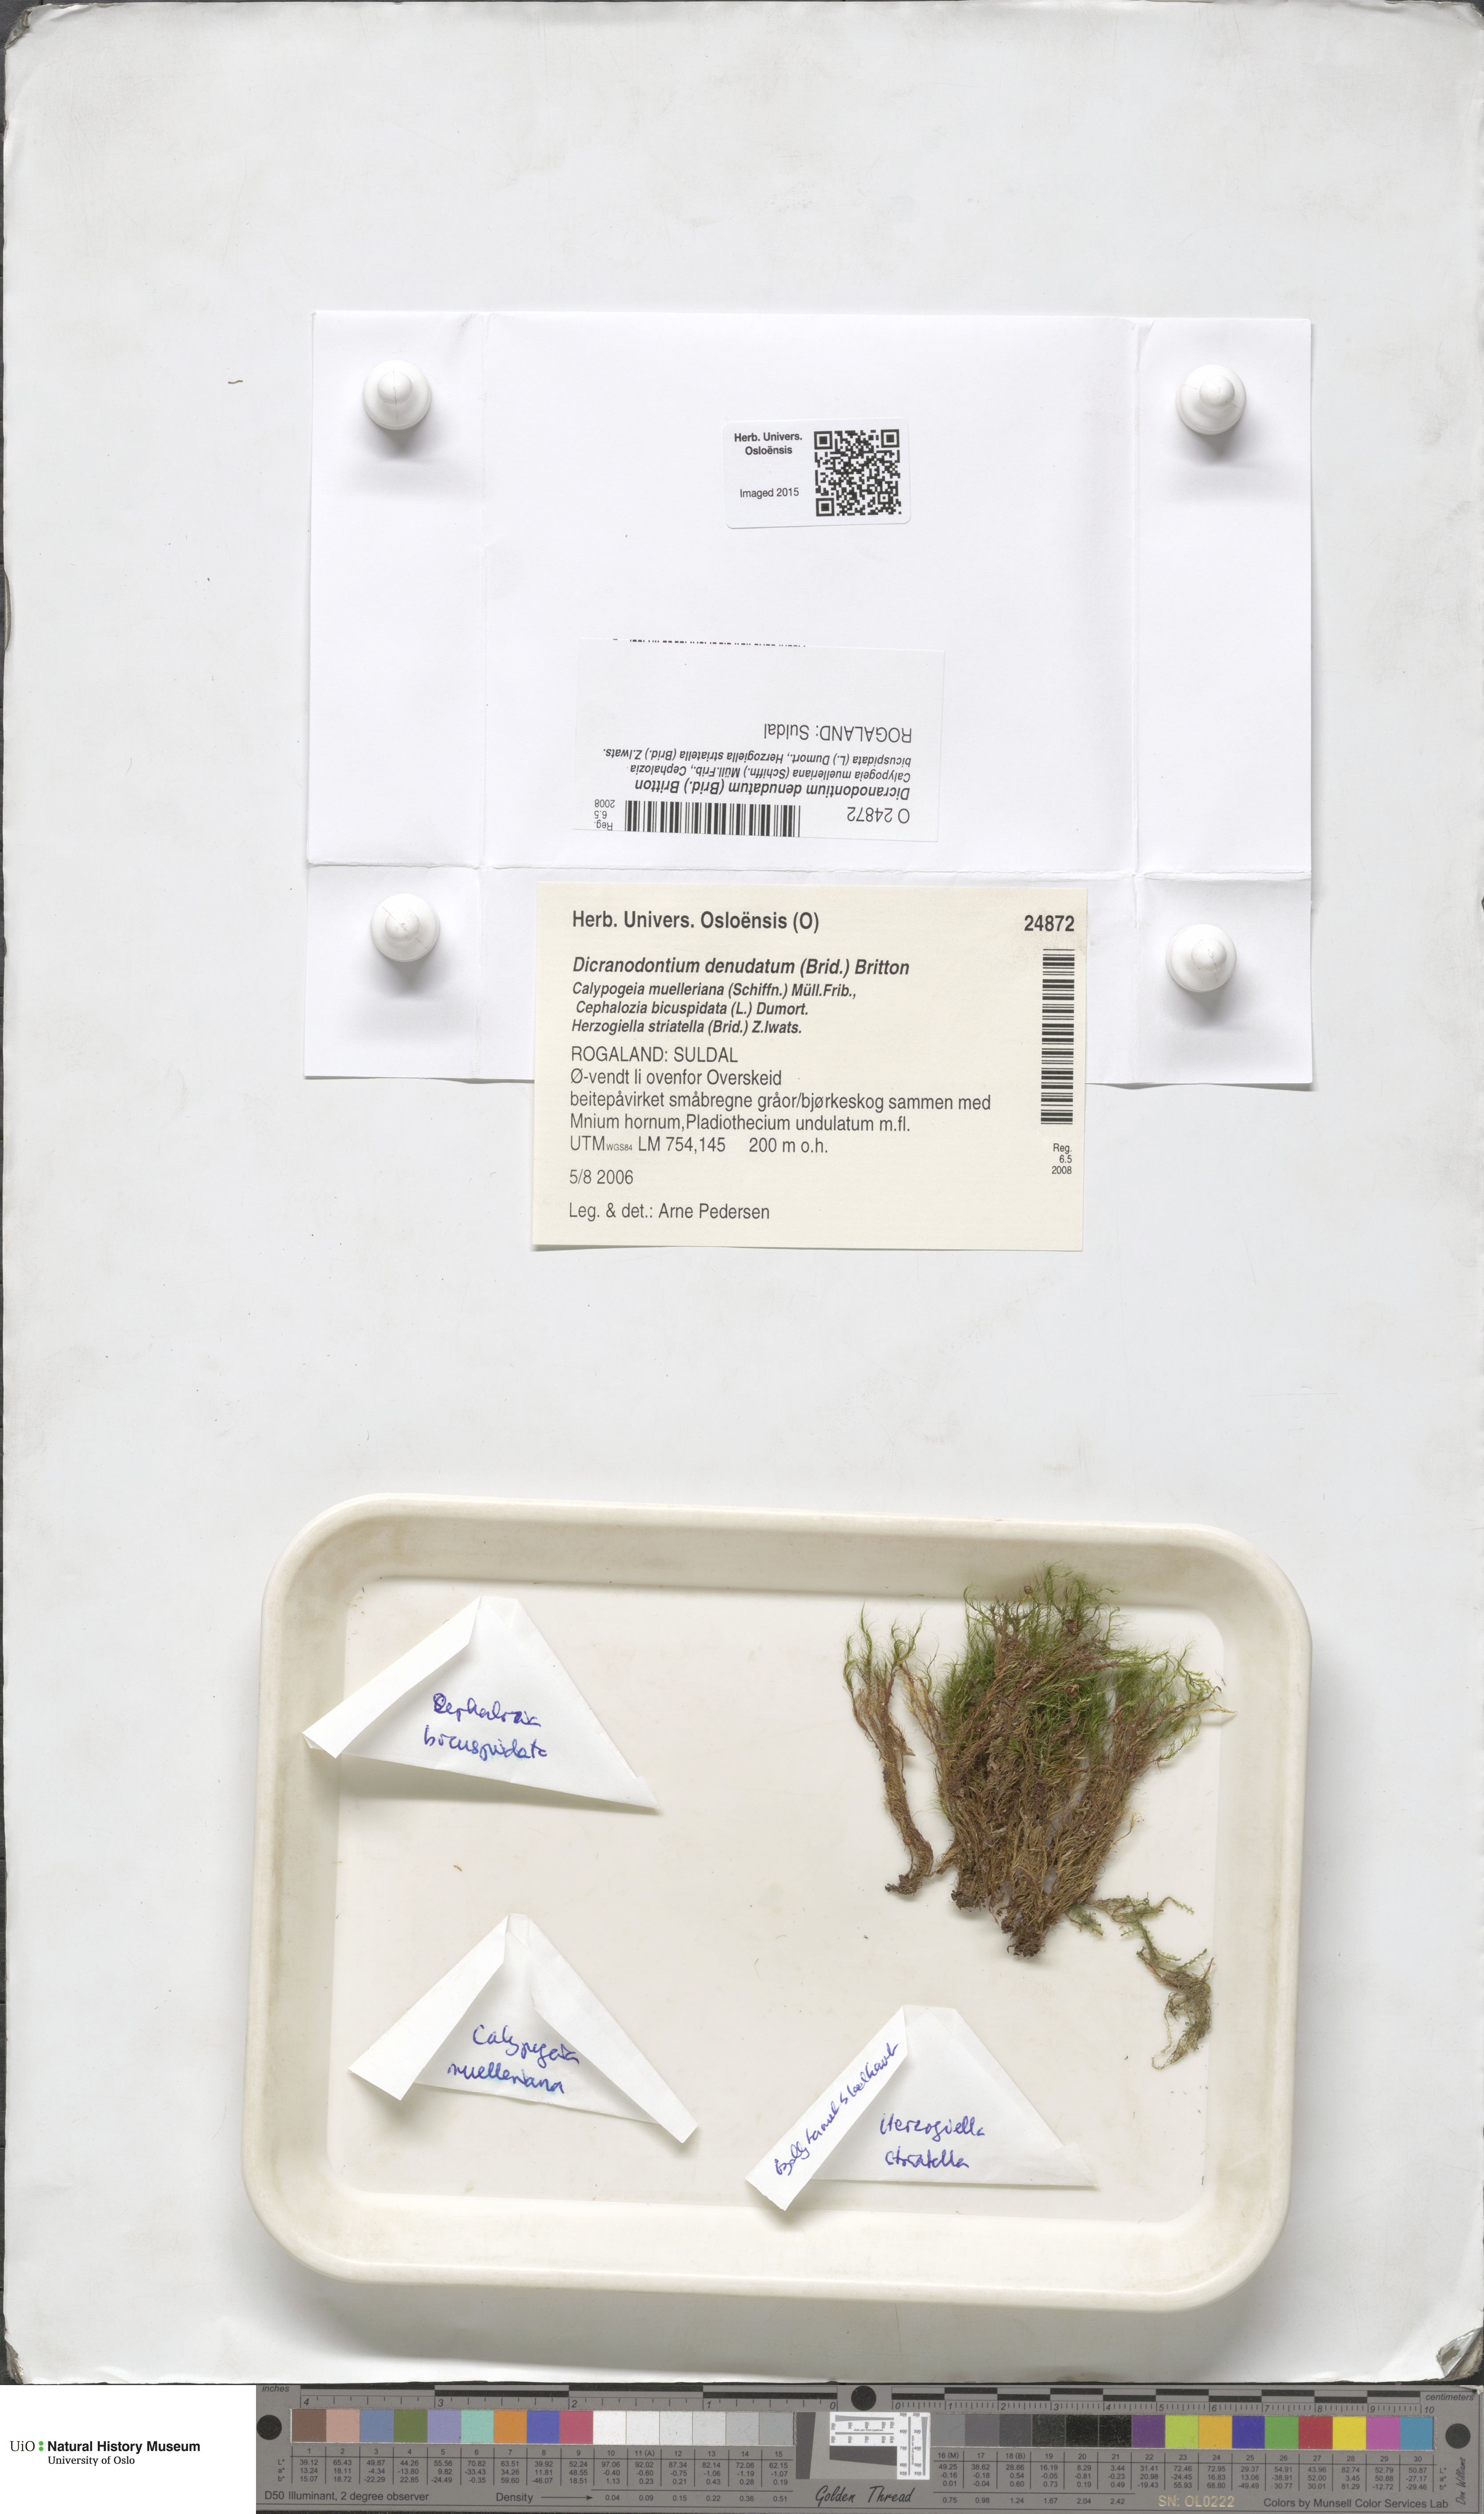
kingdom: Plantae
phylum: Bryophyta
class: Bryopsida
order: Dicranales
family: Leucobryaceae
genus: Dicranodontium
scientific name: Dicranodontium denudatum
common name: Beaked bow moss
